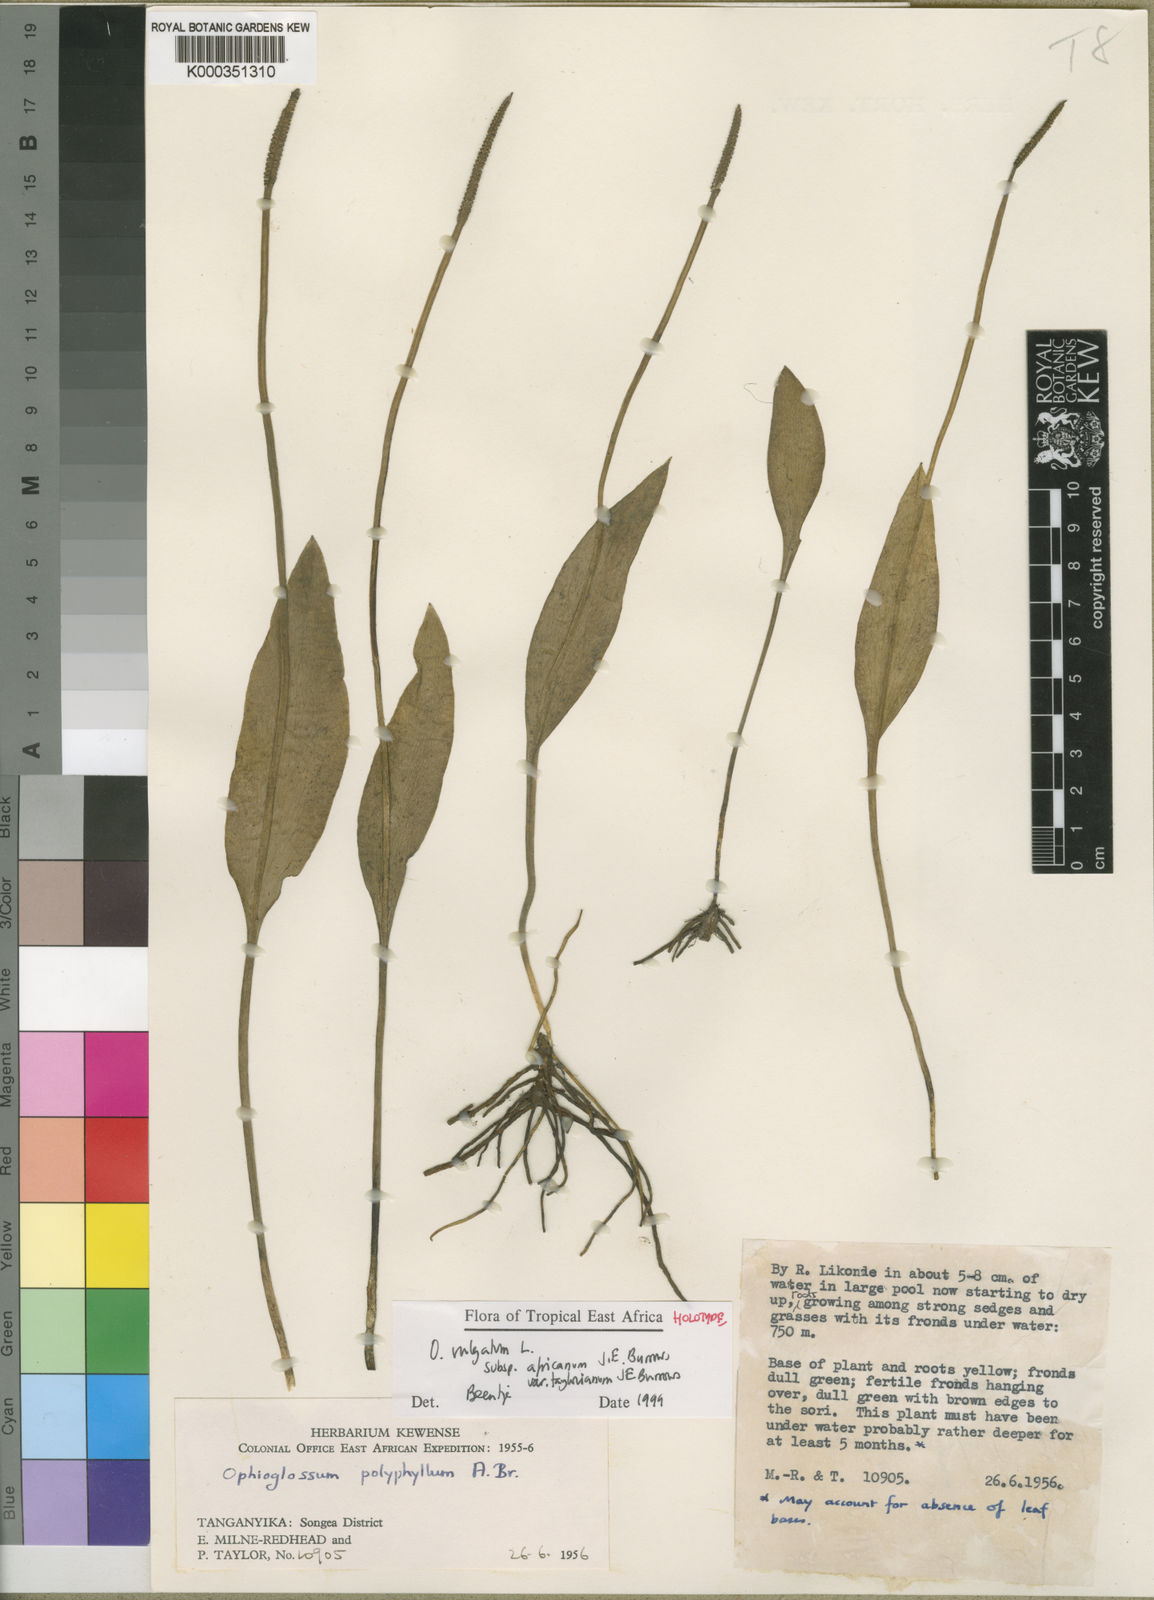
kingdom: Plantae
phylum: Tracheophyta
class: Polypodiopsida
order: Ophioglossales
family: Ophioglossaceae
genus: Ophioglossum
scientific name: Ophioglossum vulgatum
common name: Adder's-tongue
